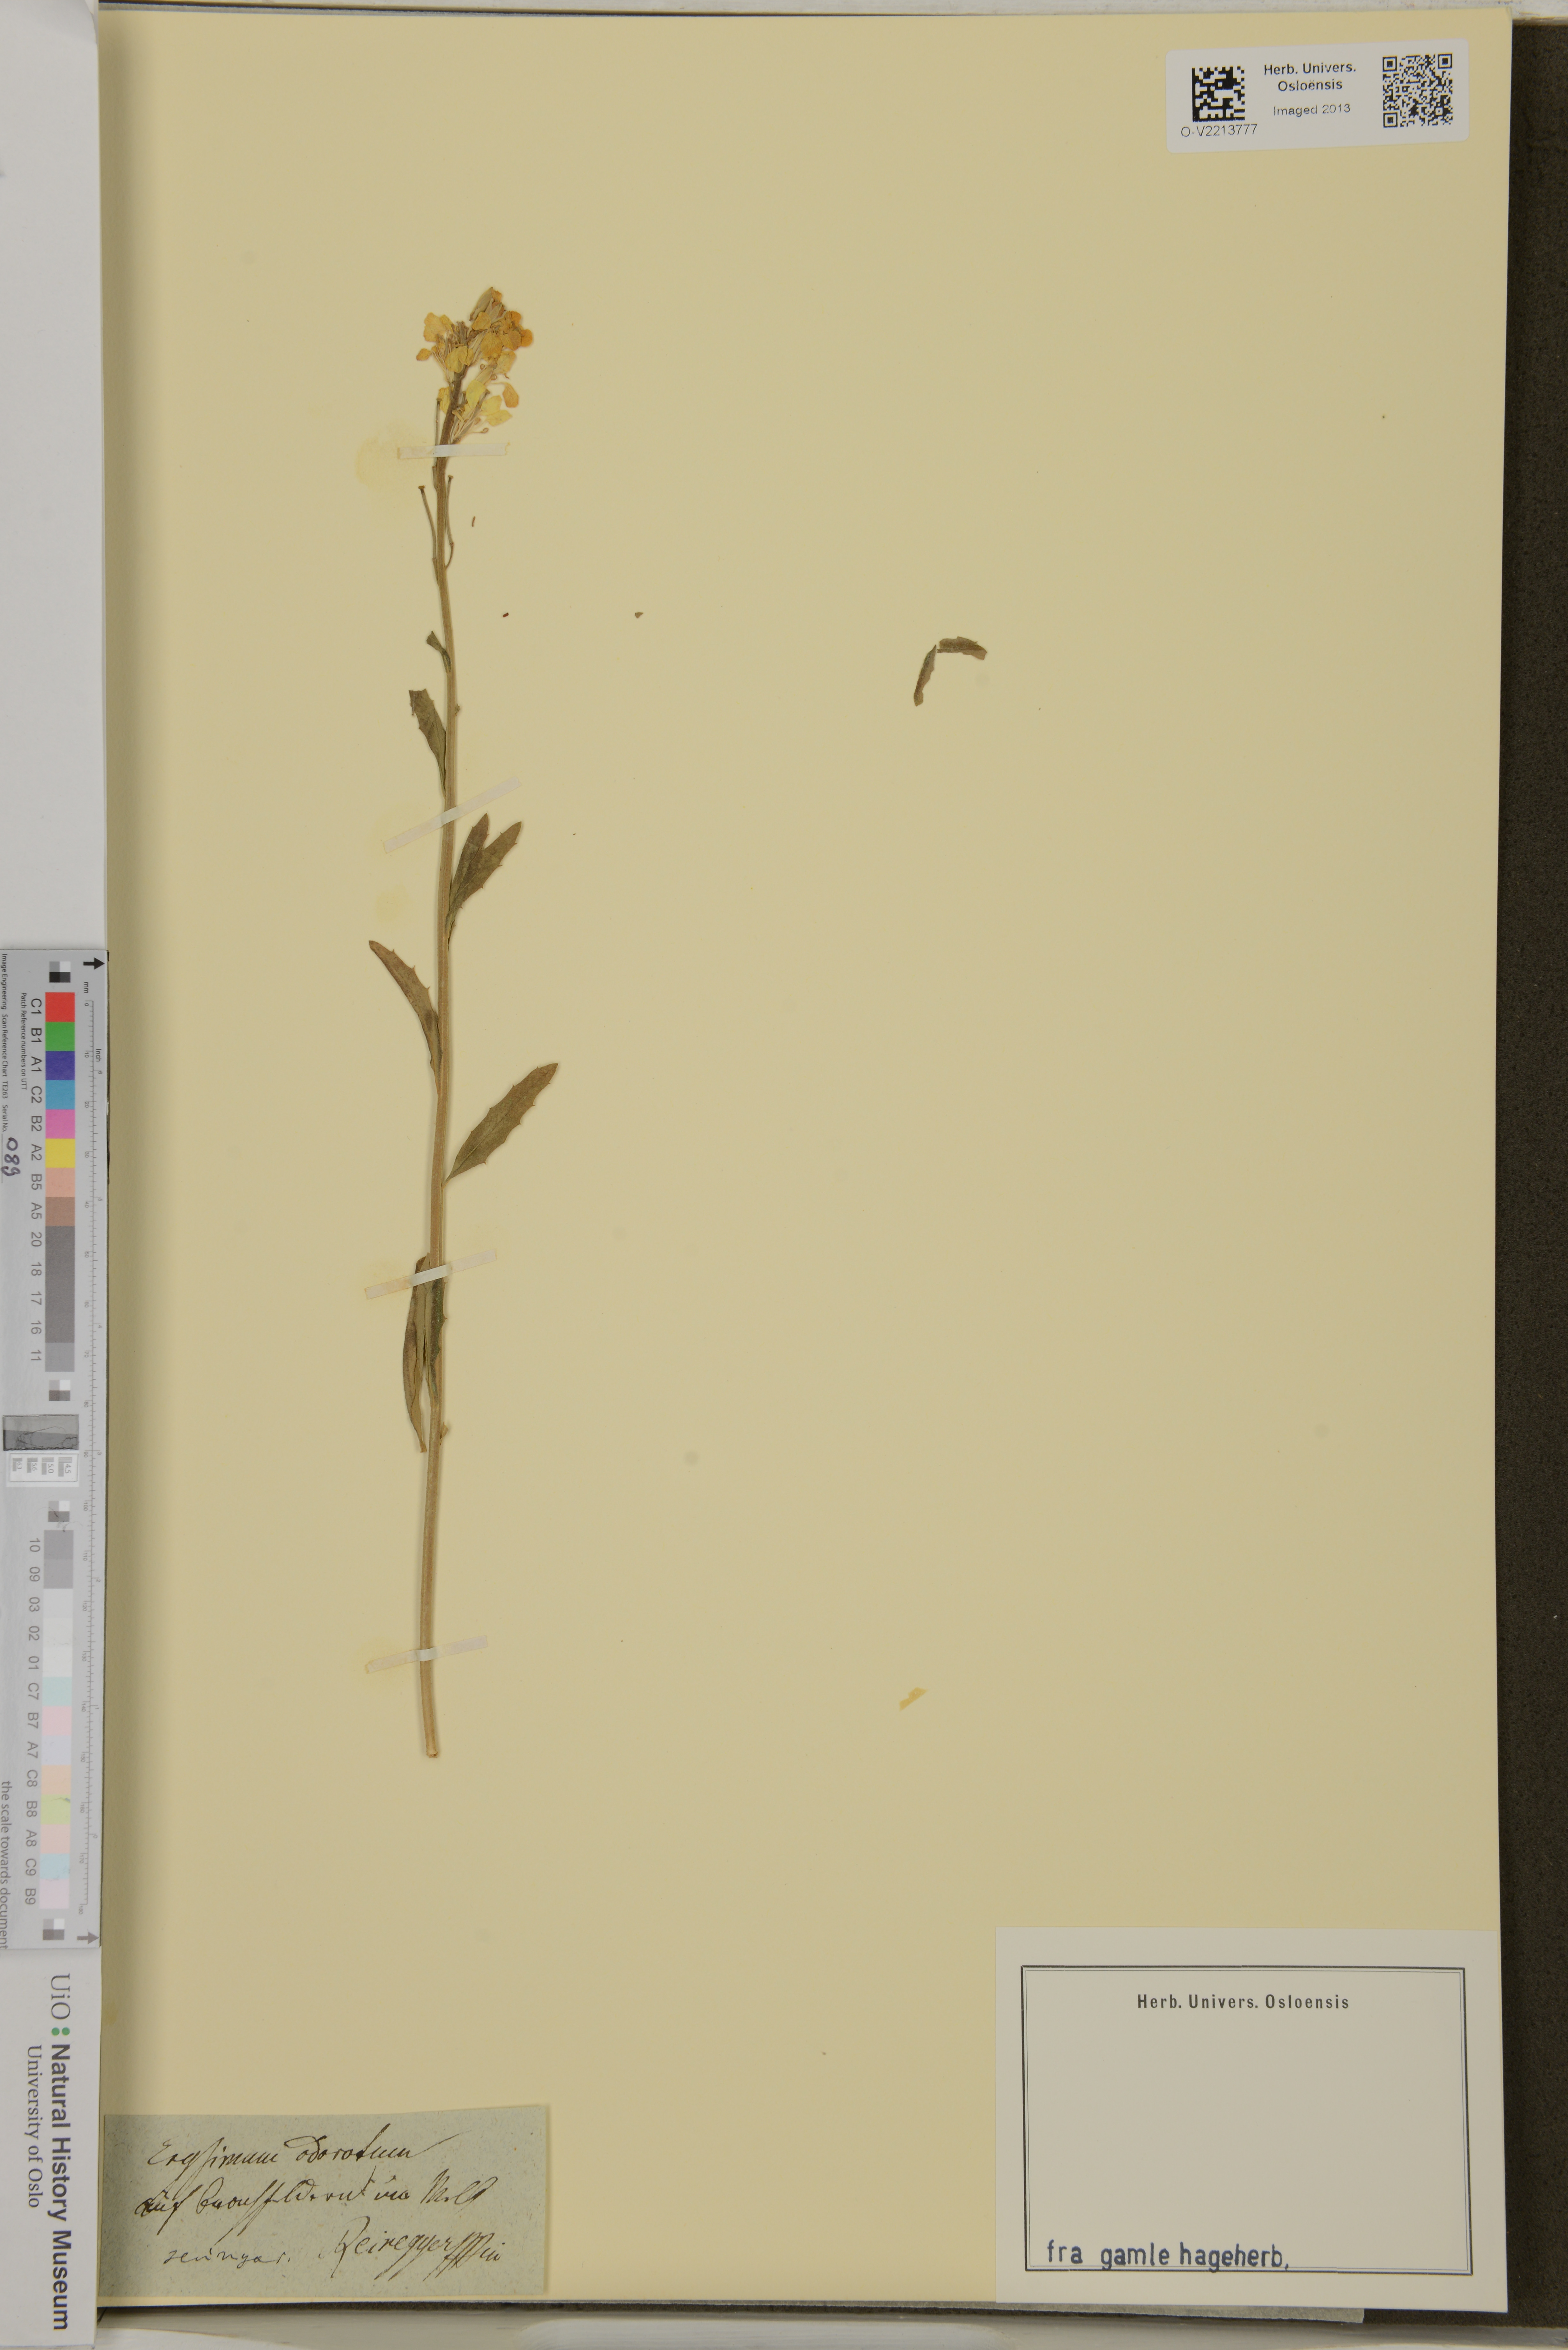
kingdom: Plantae
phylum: Tracheophyta
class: Magnoliopsida
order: Brassicales
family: Brassicaceae
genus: Erysimum
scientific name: Erysimum odoratum
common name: Smelly wallflower
